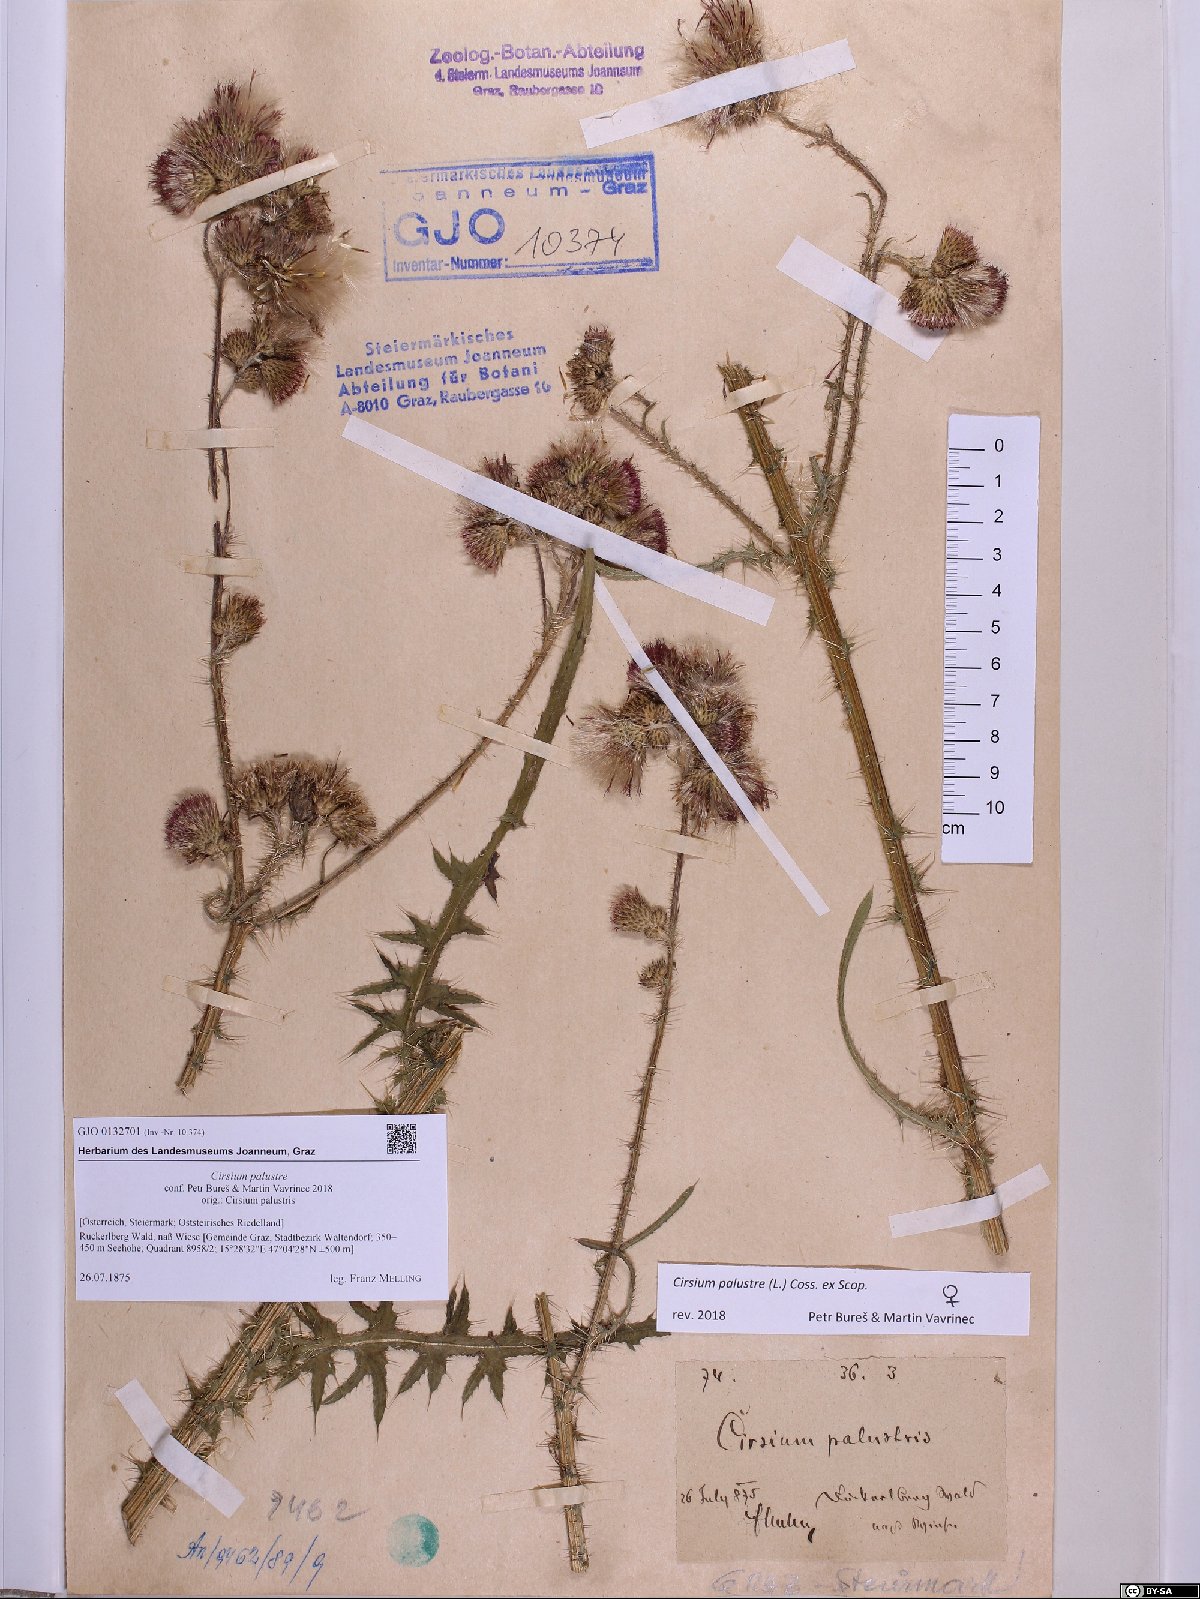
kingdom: Plantae
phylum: Tracheophyta
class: Magnoliopsida
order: Asterales
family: Asteraceae
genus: Cirsium
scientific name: Cirsium palustre
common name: Marsh thistle
